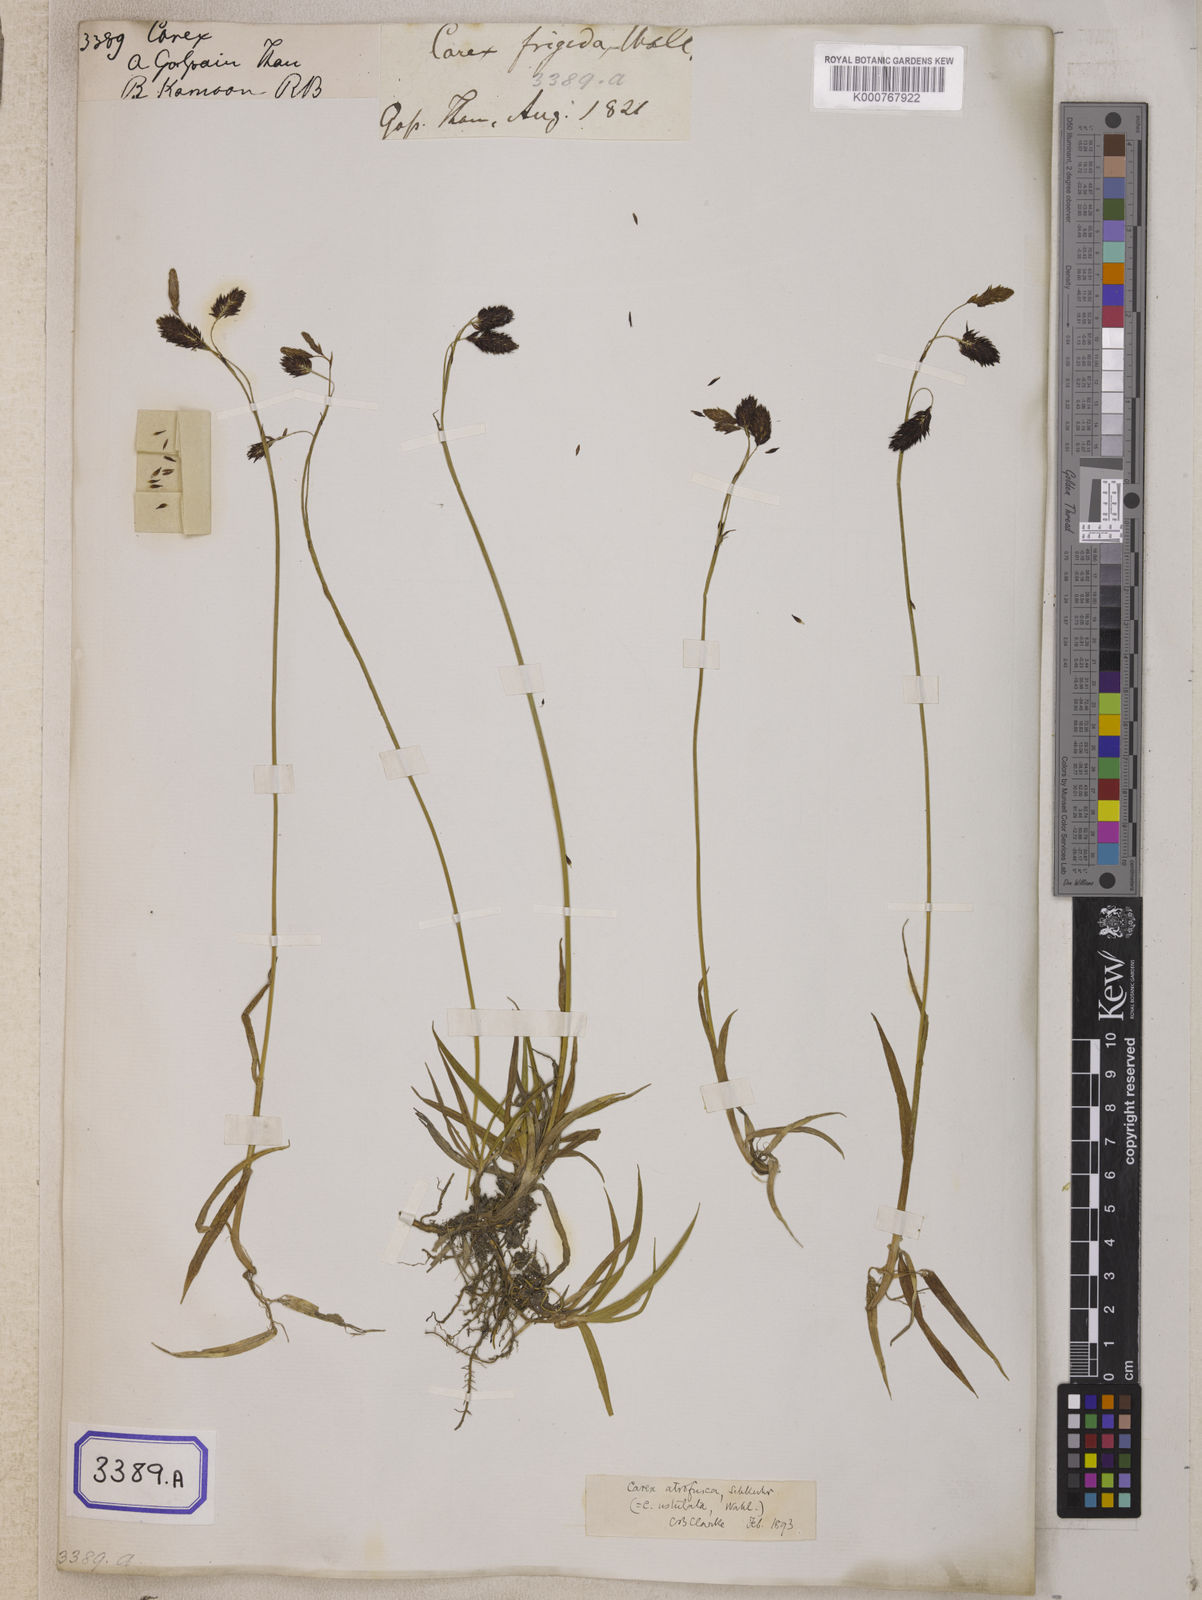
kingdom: Plantae
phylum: Tracheophyta
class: Liliopsida
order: Poales
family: Cyperaceae
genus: Carex
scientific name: Carex
